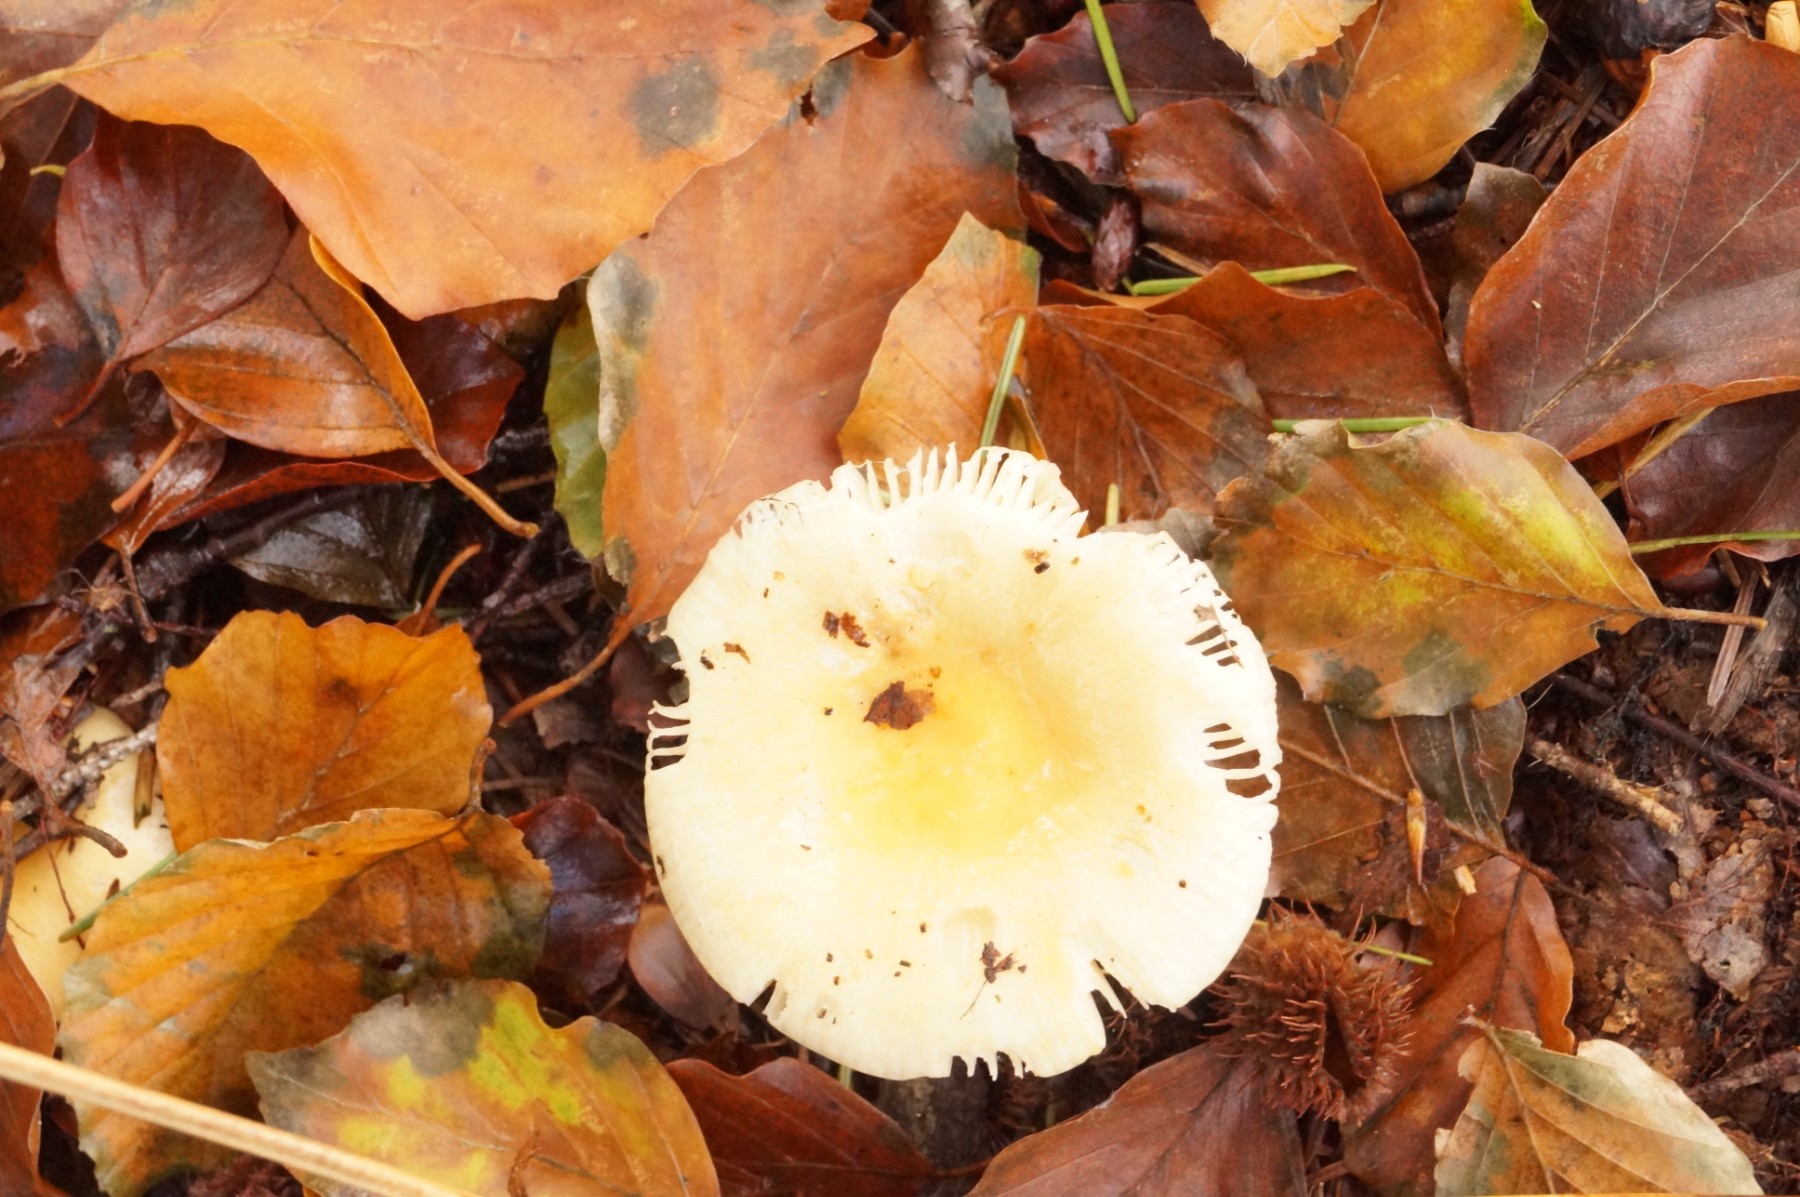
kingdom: Fungi
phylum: Basidiomycota
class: Agaricomycetes
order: Russulales
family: Russulaceae
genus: Russula
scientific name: Russula
